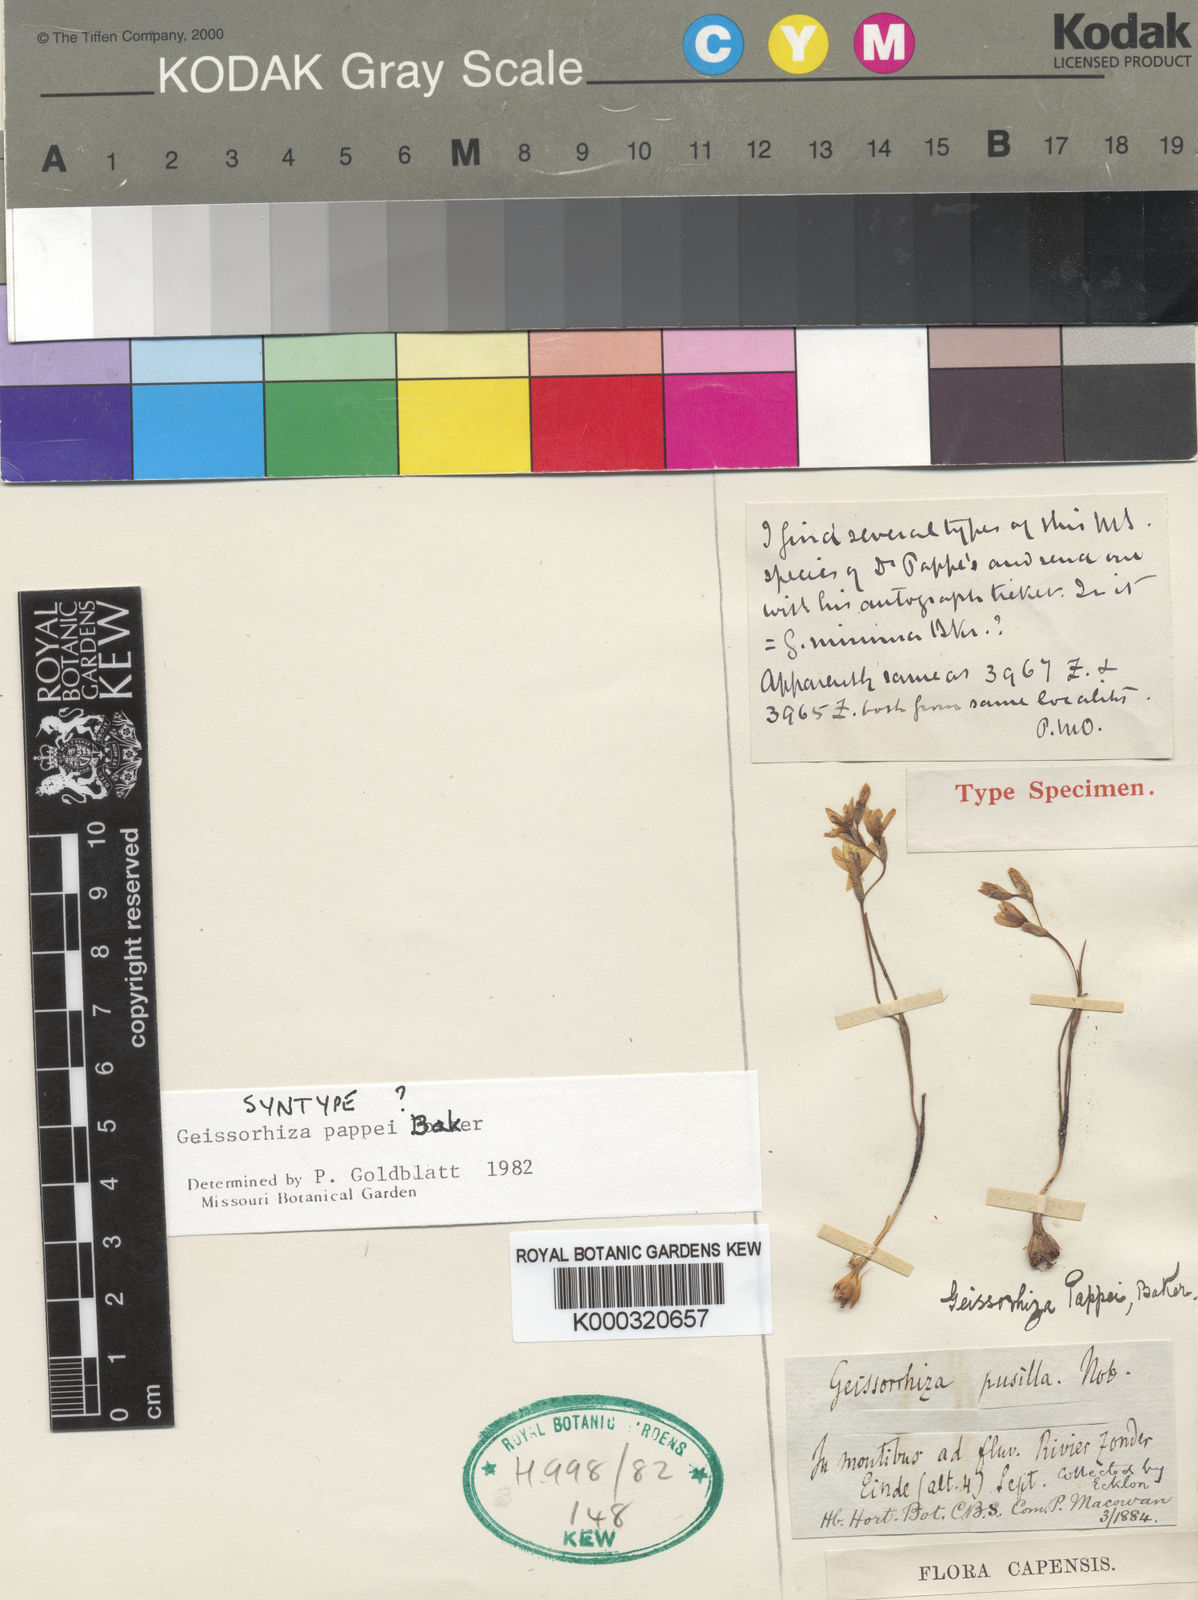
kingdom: Plantae
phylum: Tracheophyta
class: Liliopsida
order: Asparagales
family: Iridaceae
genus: Geissorhiza
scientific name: Geissorhiza pappei
